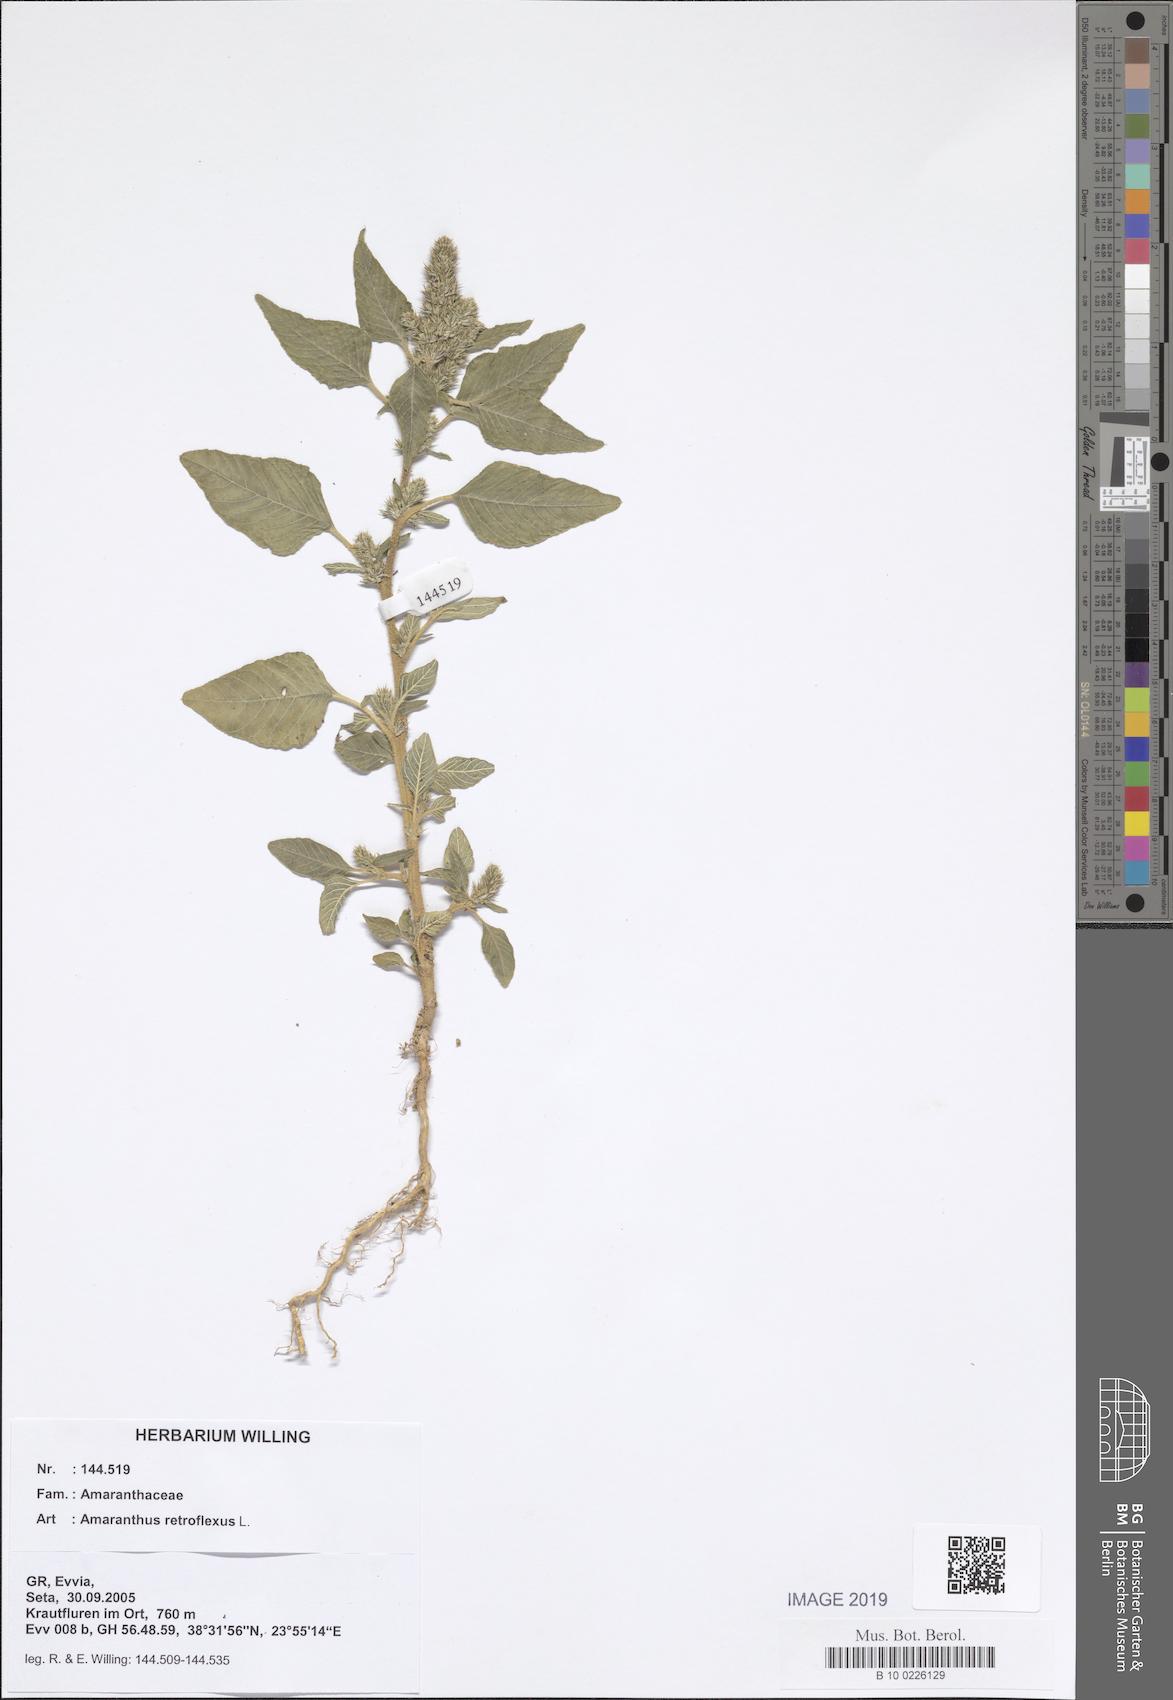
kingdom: Plantae
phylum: Tracheophyta
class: Magnoliopsida
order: Caryophyllales
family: Amaranthaceae
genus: Amaranthus
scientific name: Amaranthus retroflexus
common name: Redroot amaranth
